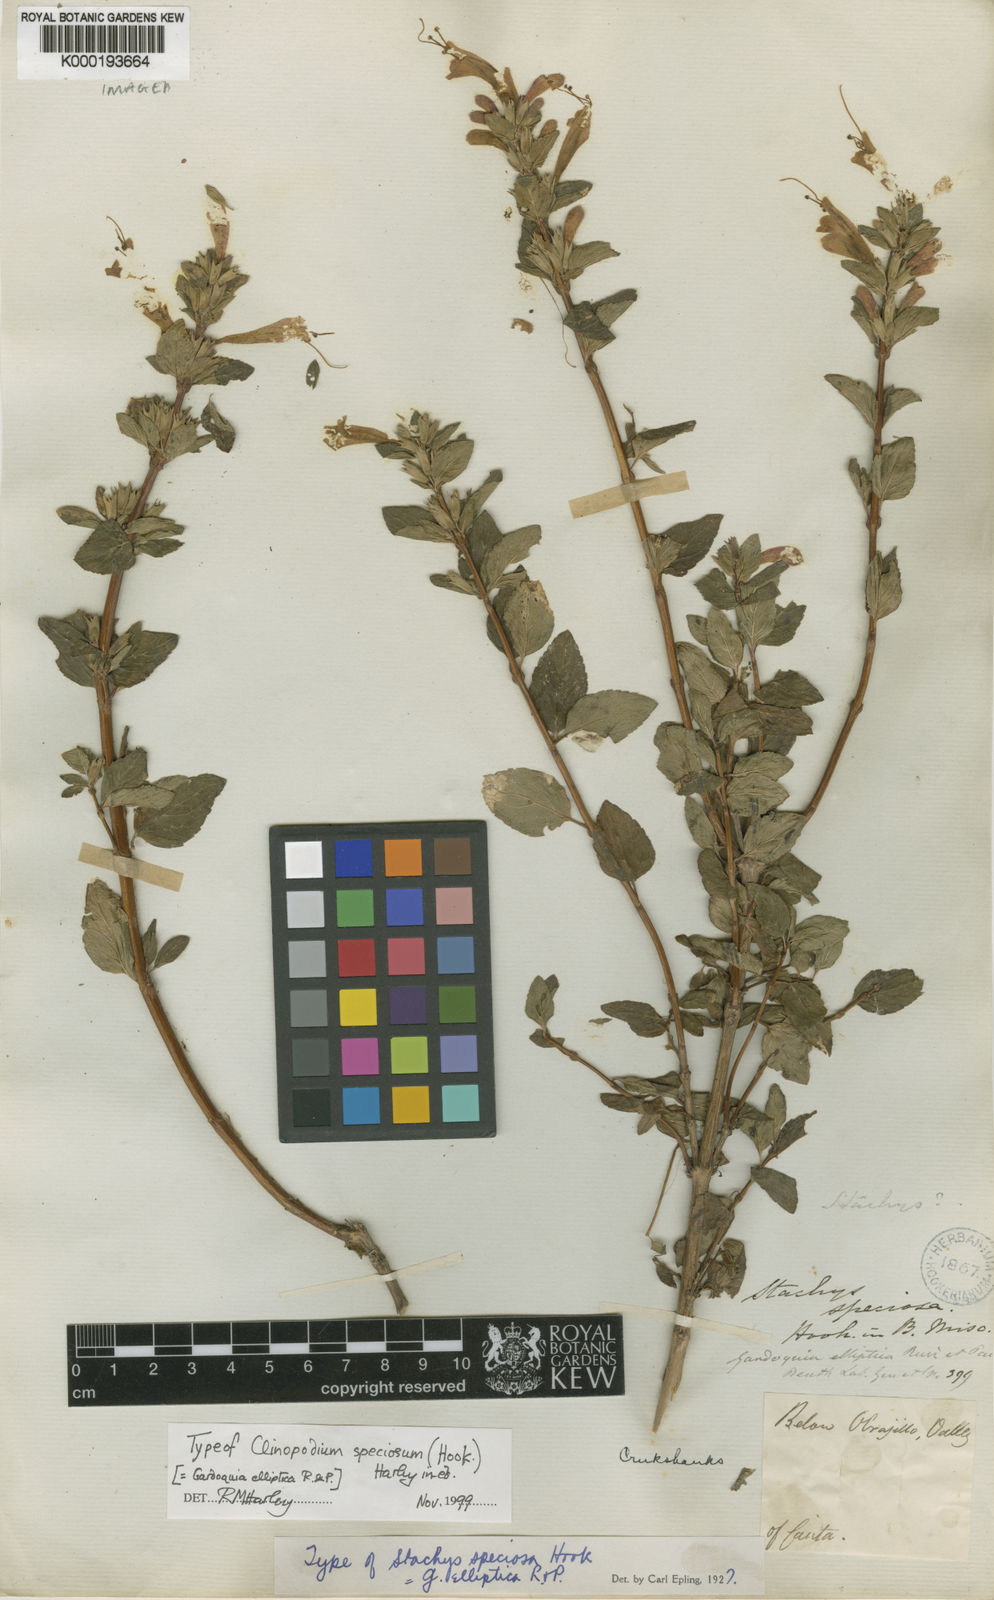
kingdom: Plantae
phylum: Tracheophyta
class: Magnoliopsida
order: Lamiales
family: Lamiaceae
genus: Clinopodium
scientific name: Clinopodium speciosum
